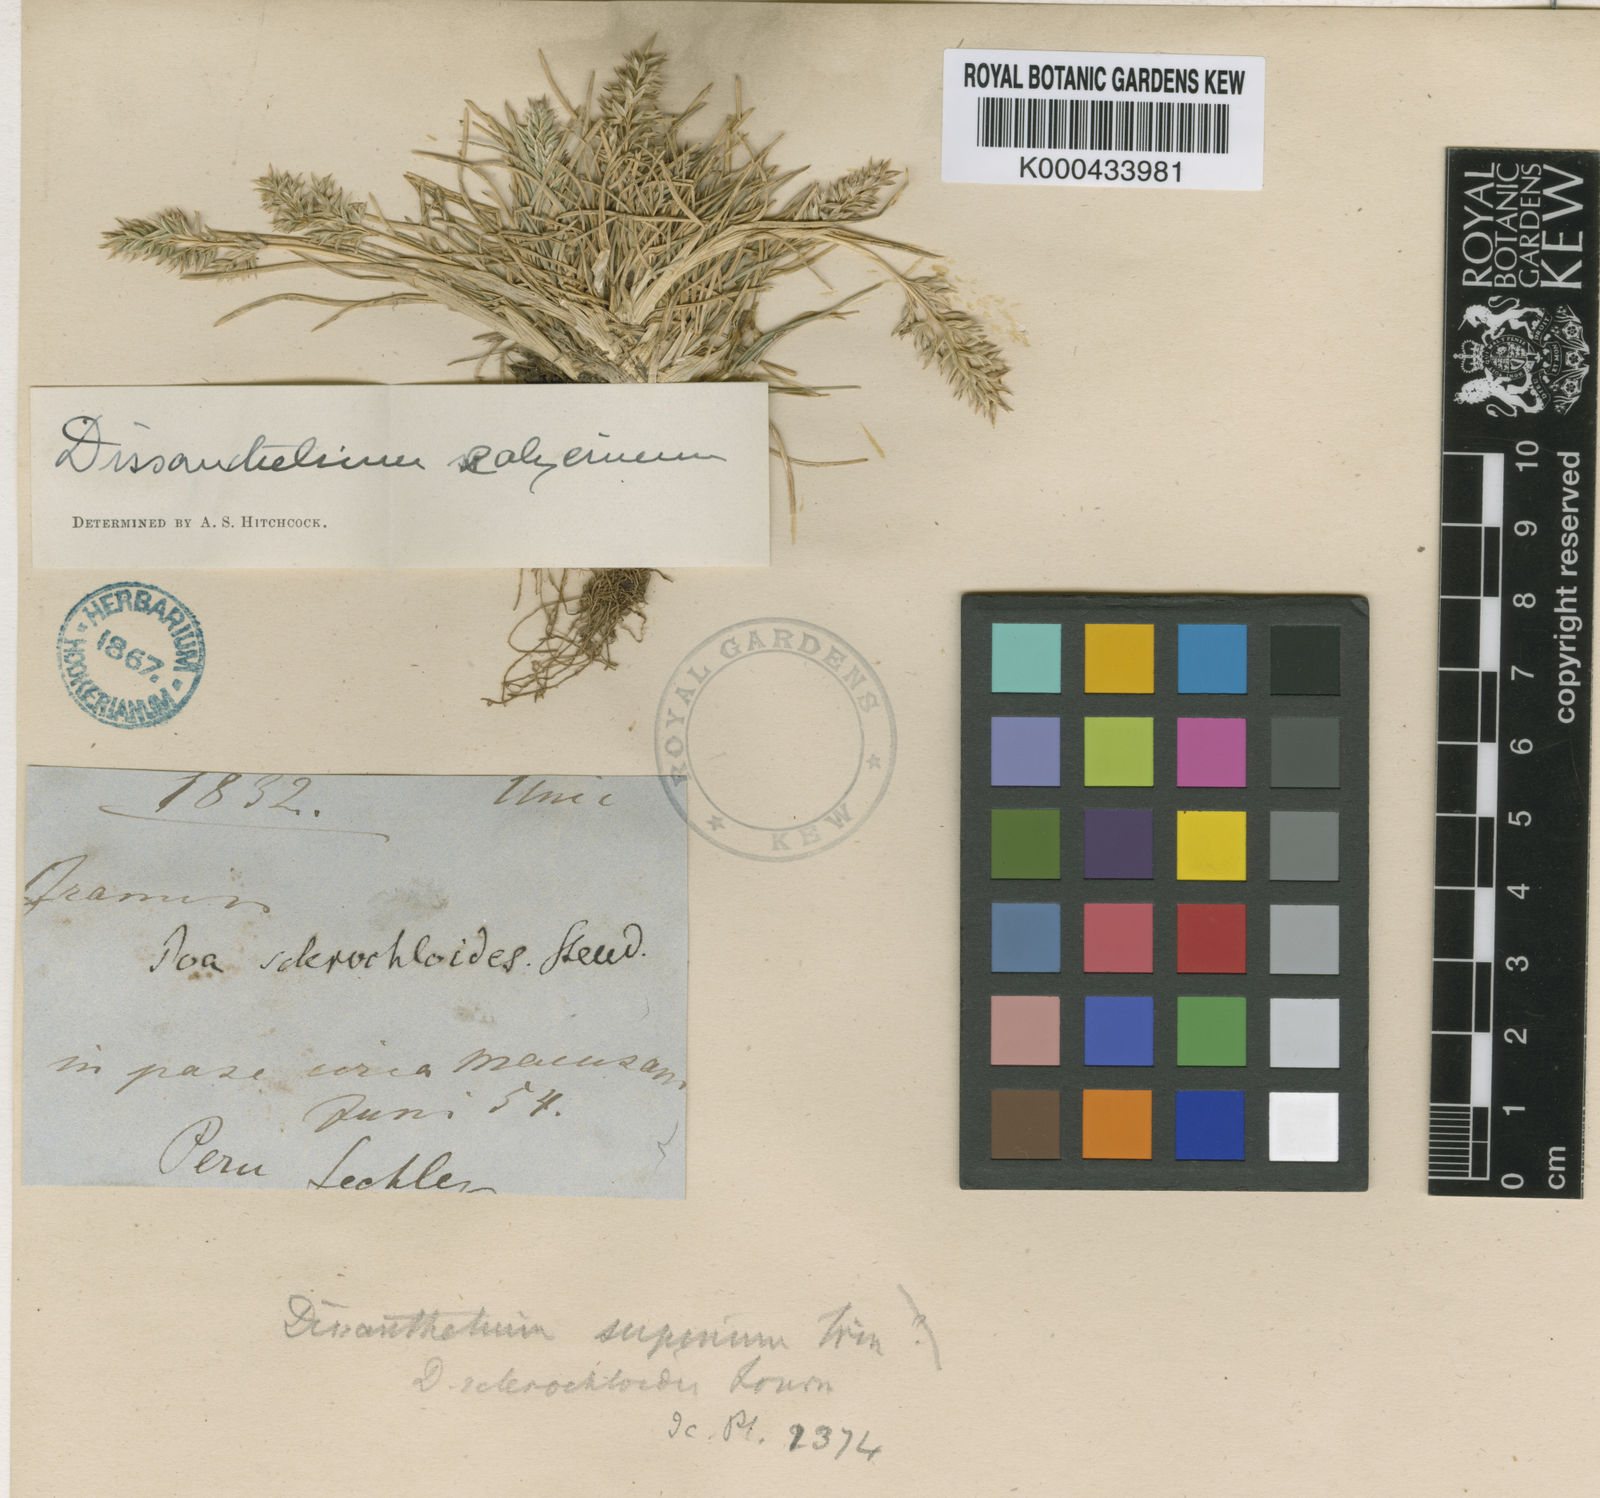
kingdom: Plantae
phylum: Tracheophyta
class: Liliopsida
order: Poales
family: Poaceae
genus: Poa
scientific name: Poa calycina
